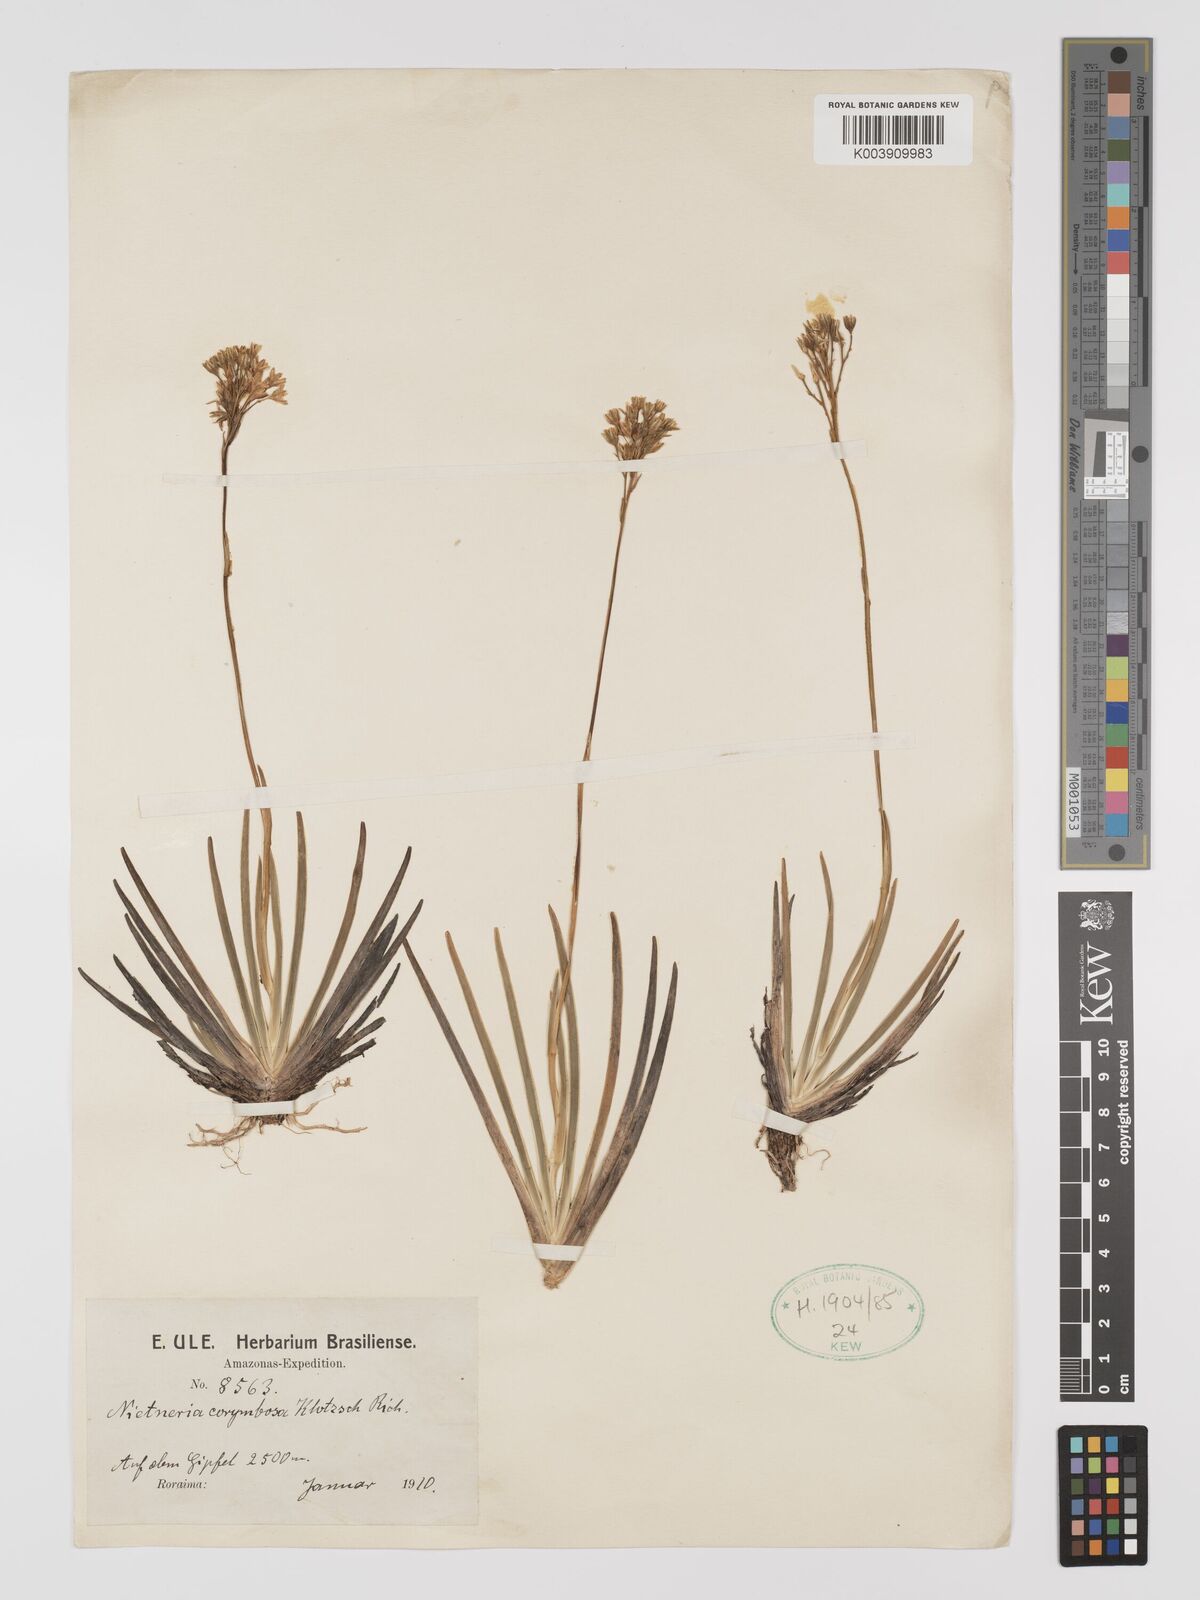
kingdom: Plantae
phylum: Tracheophyta
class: Liliopsida
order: Dioscoreales
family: Nartheciaceae
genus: Nietneria
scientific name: Nietneria corymbosa
